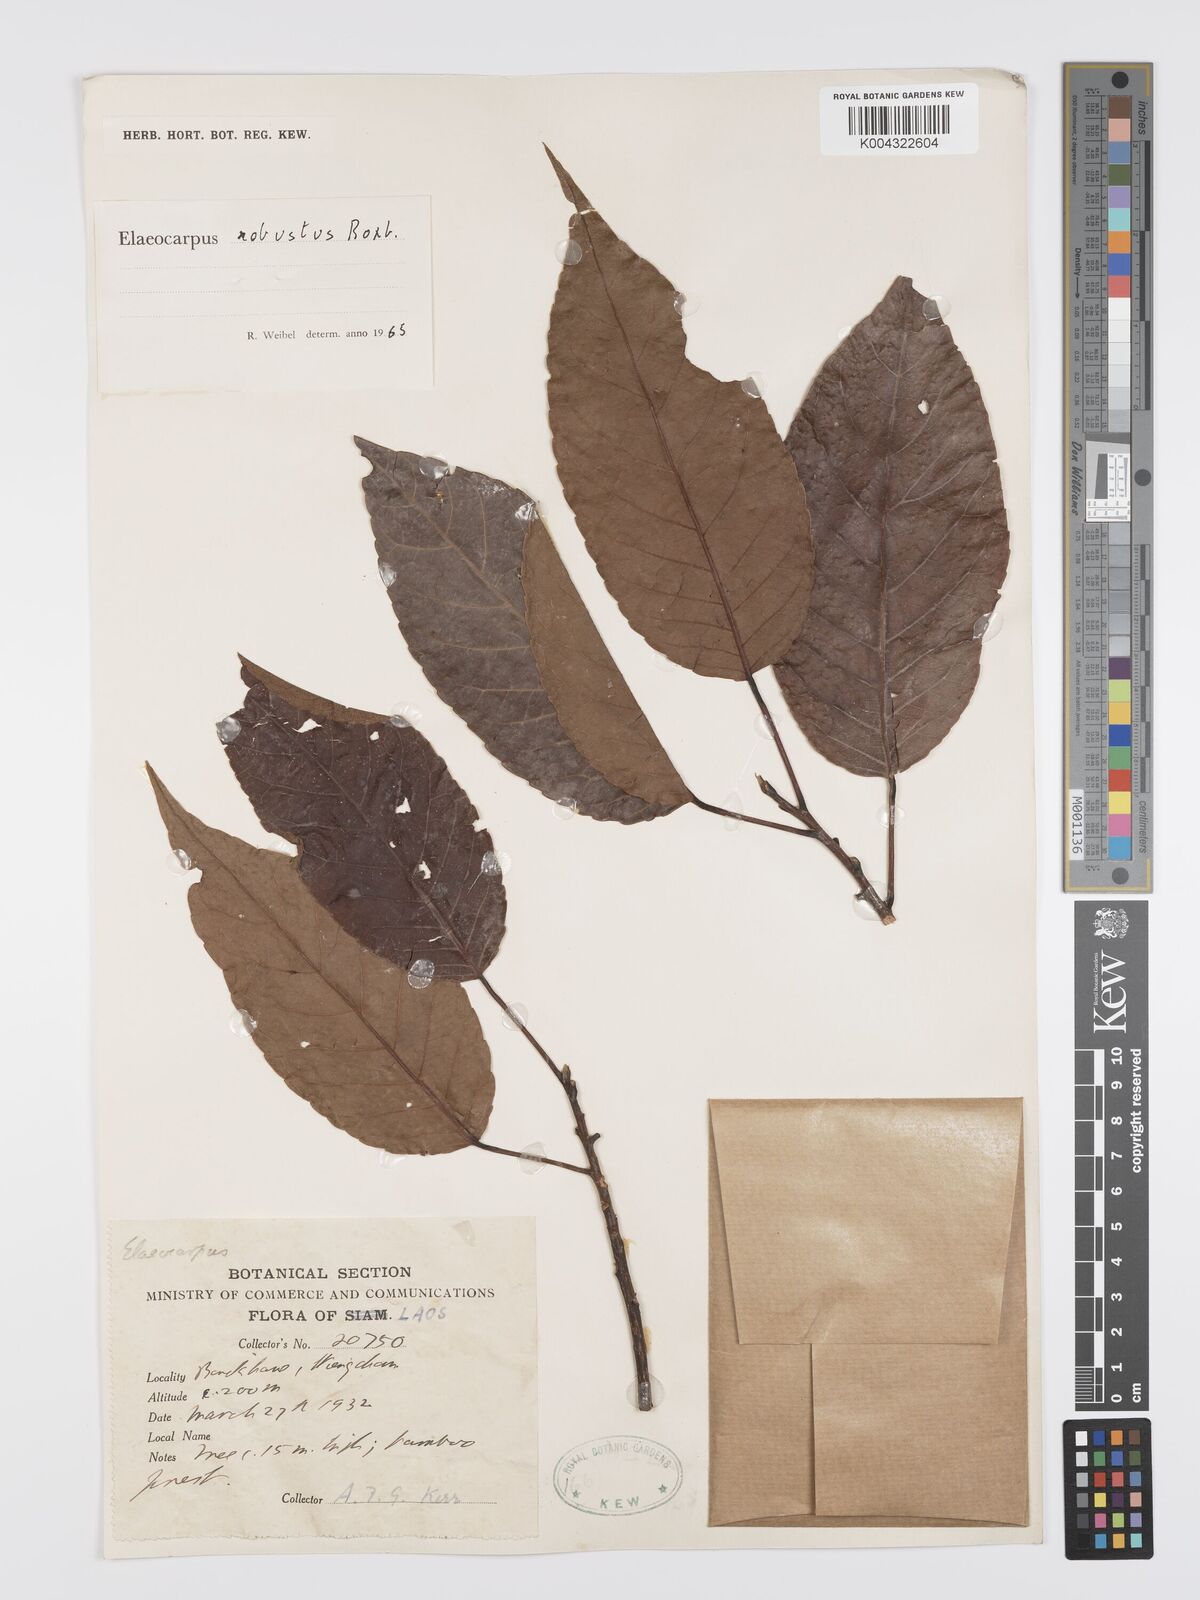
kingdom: Plantae
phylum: Tracheophyta
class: Magnoliopsida
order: Oxalidales
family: Elaeocarpaceae
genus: Elaeocarpus
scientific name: Elaeocarpus robustus
